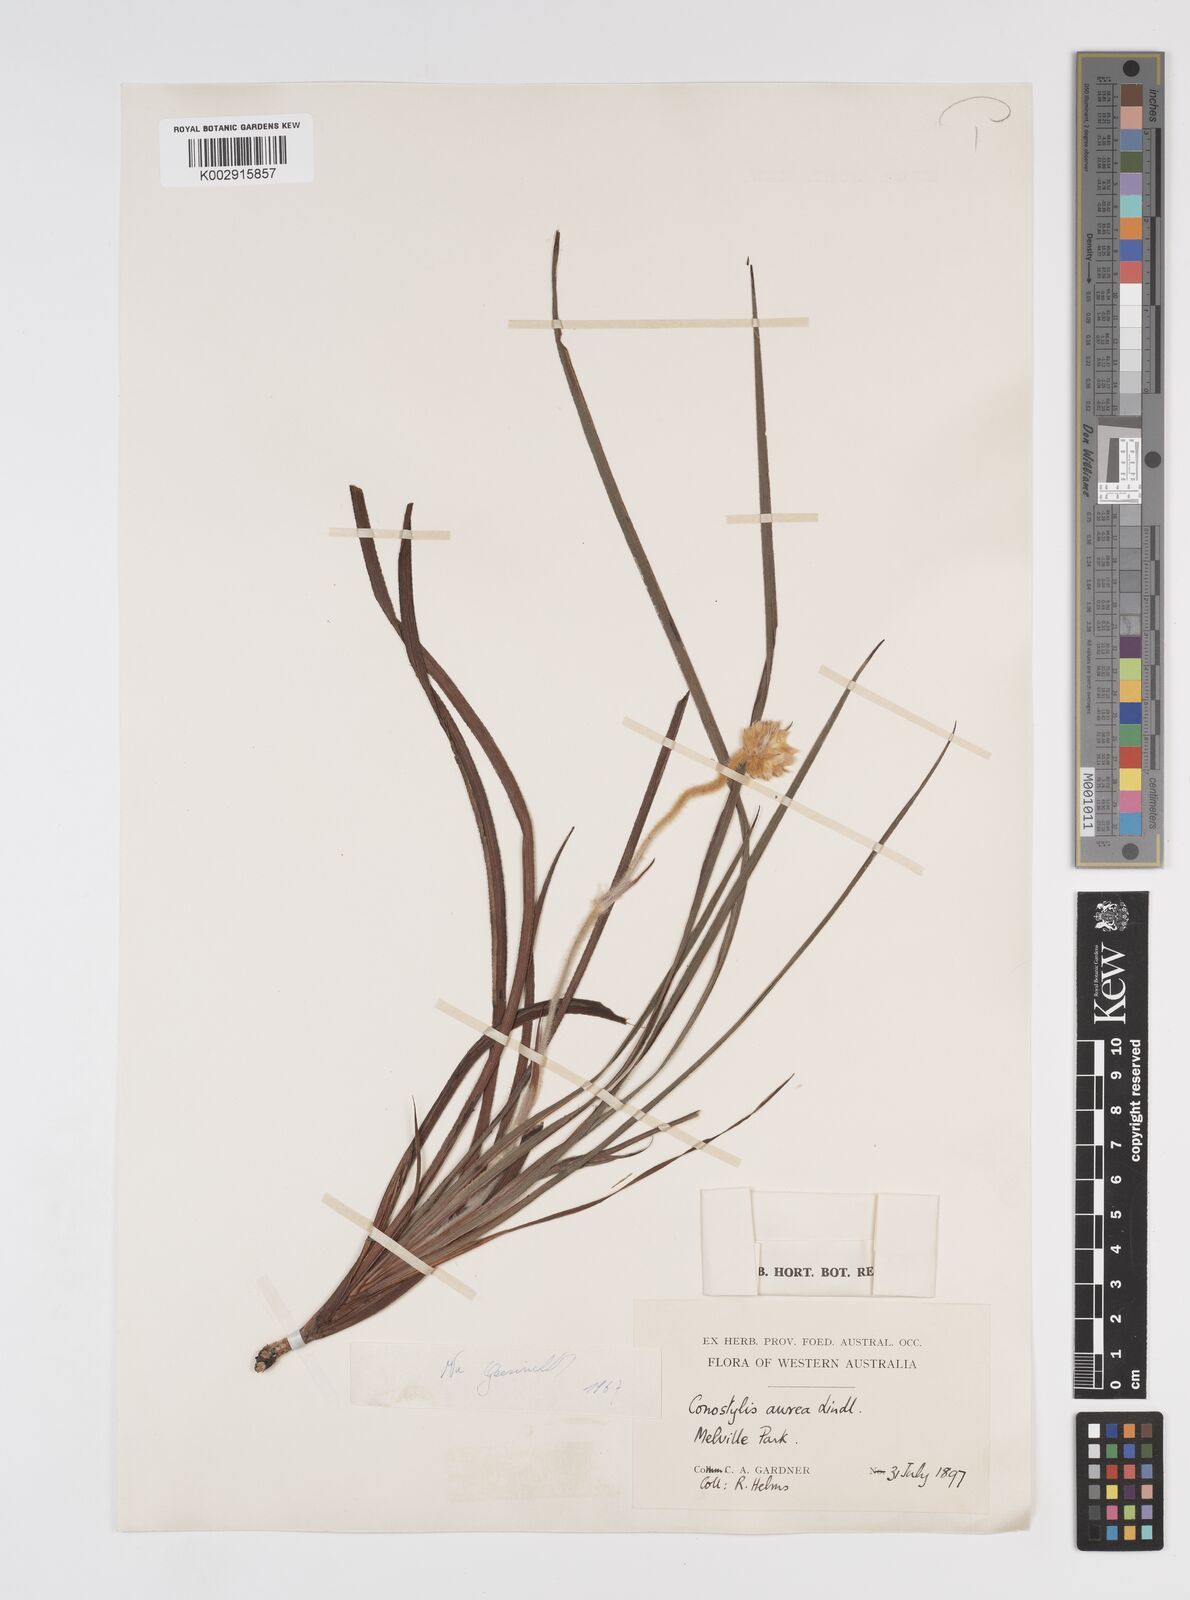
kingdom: Plantae
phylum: Tracheophyta
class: Liliopsida
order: Commelinales
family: Haemodoraceae
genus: Conostylis
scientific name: Conostylis aurea
